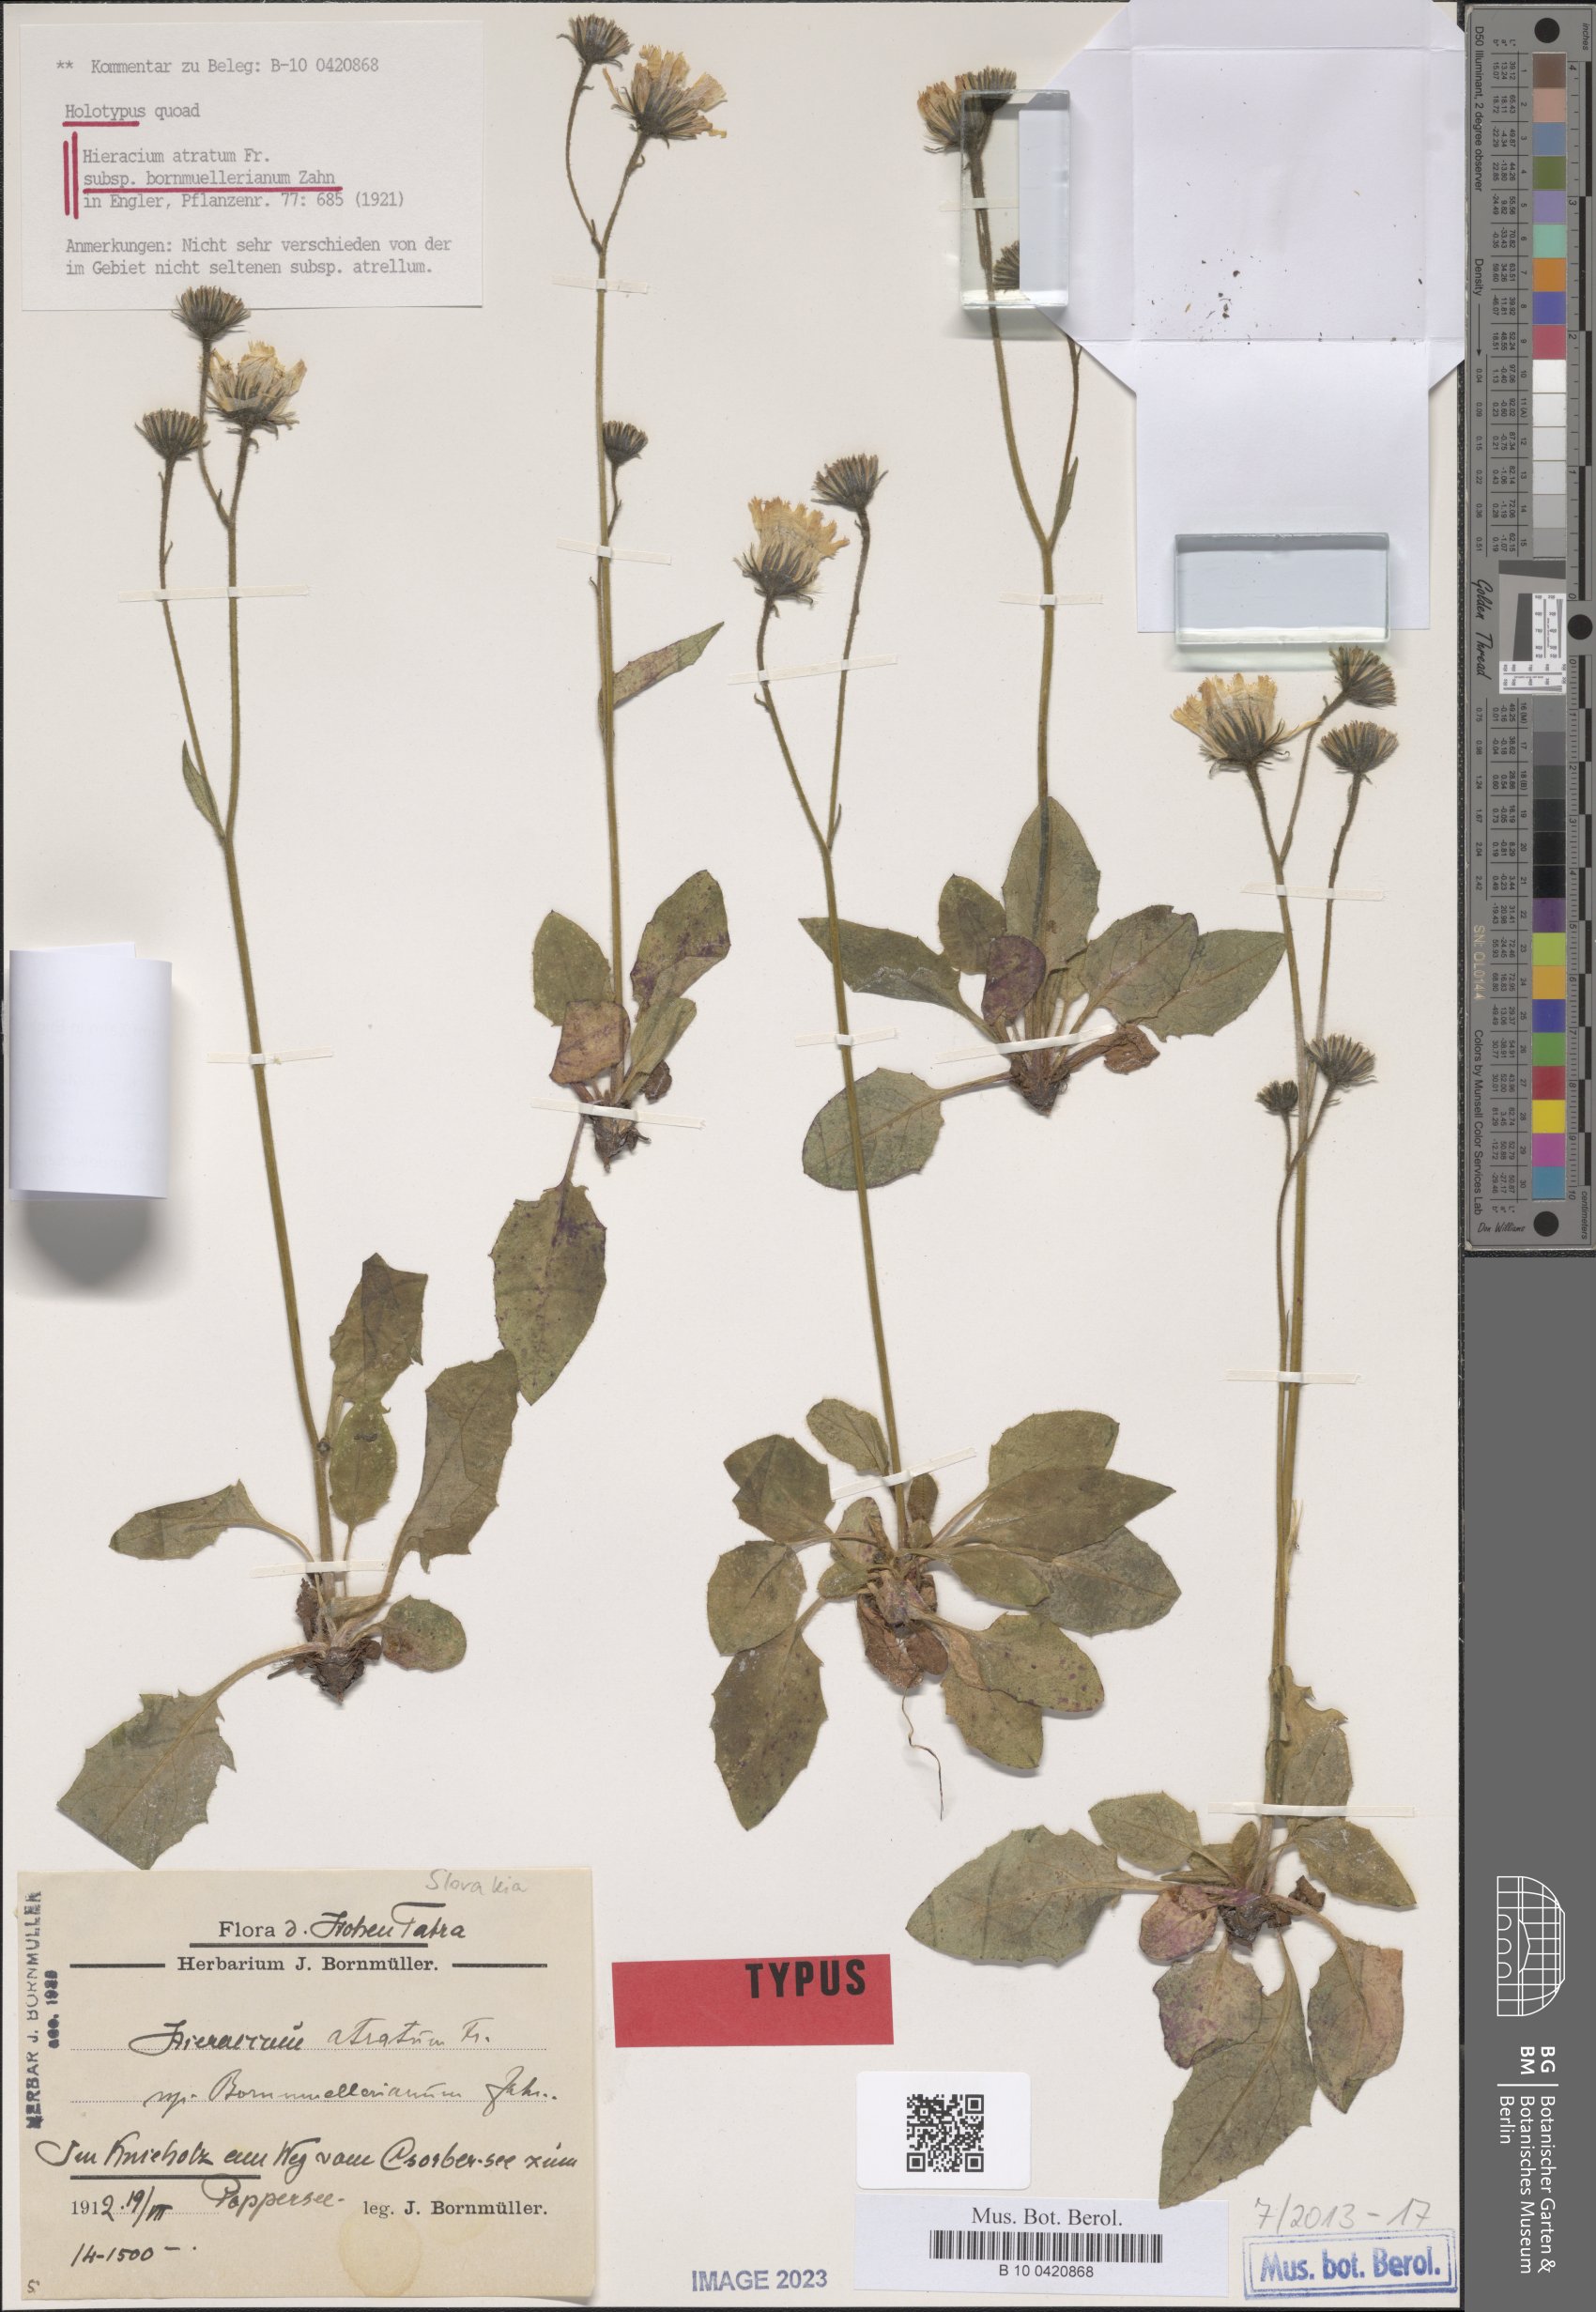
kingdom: Plantae
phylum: Tracheophyta
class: Magnoliopsida
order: Asterales
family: Asteraceae
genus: Hieracium
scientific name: Hieracium atratum
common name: Polar hawkweed
